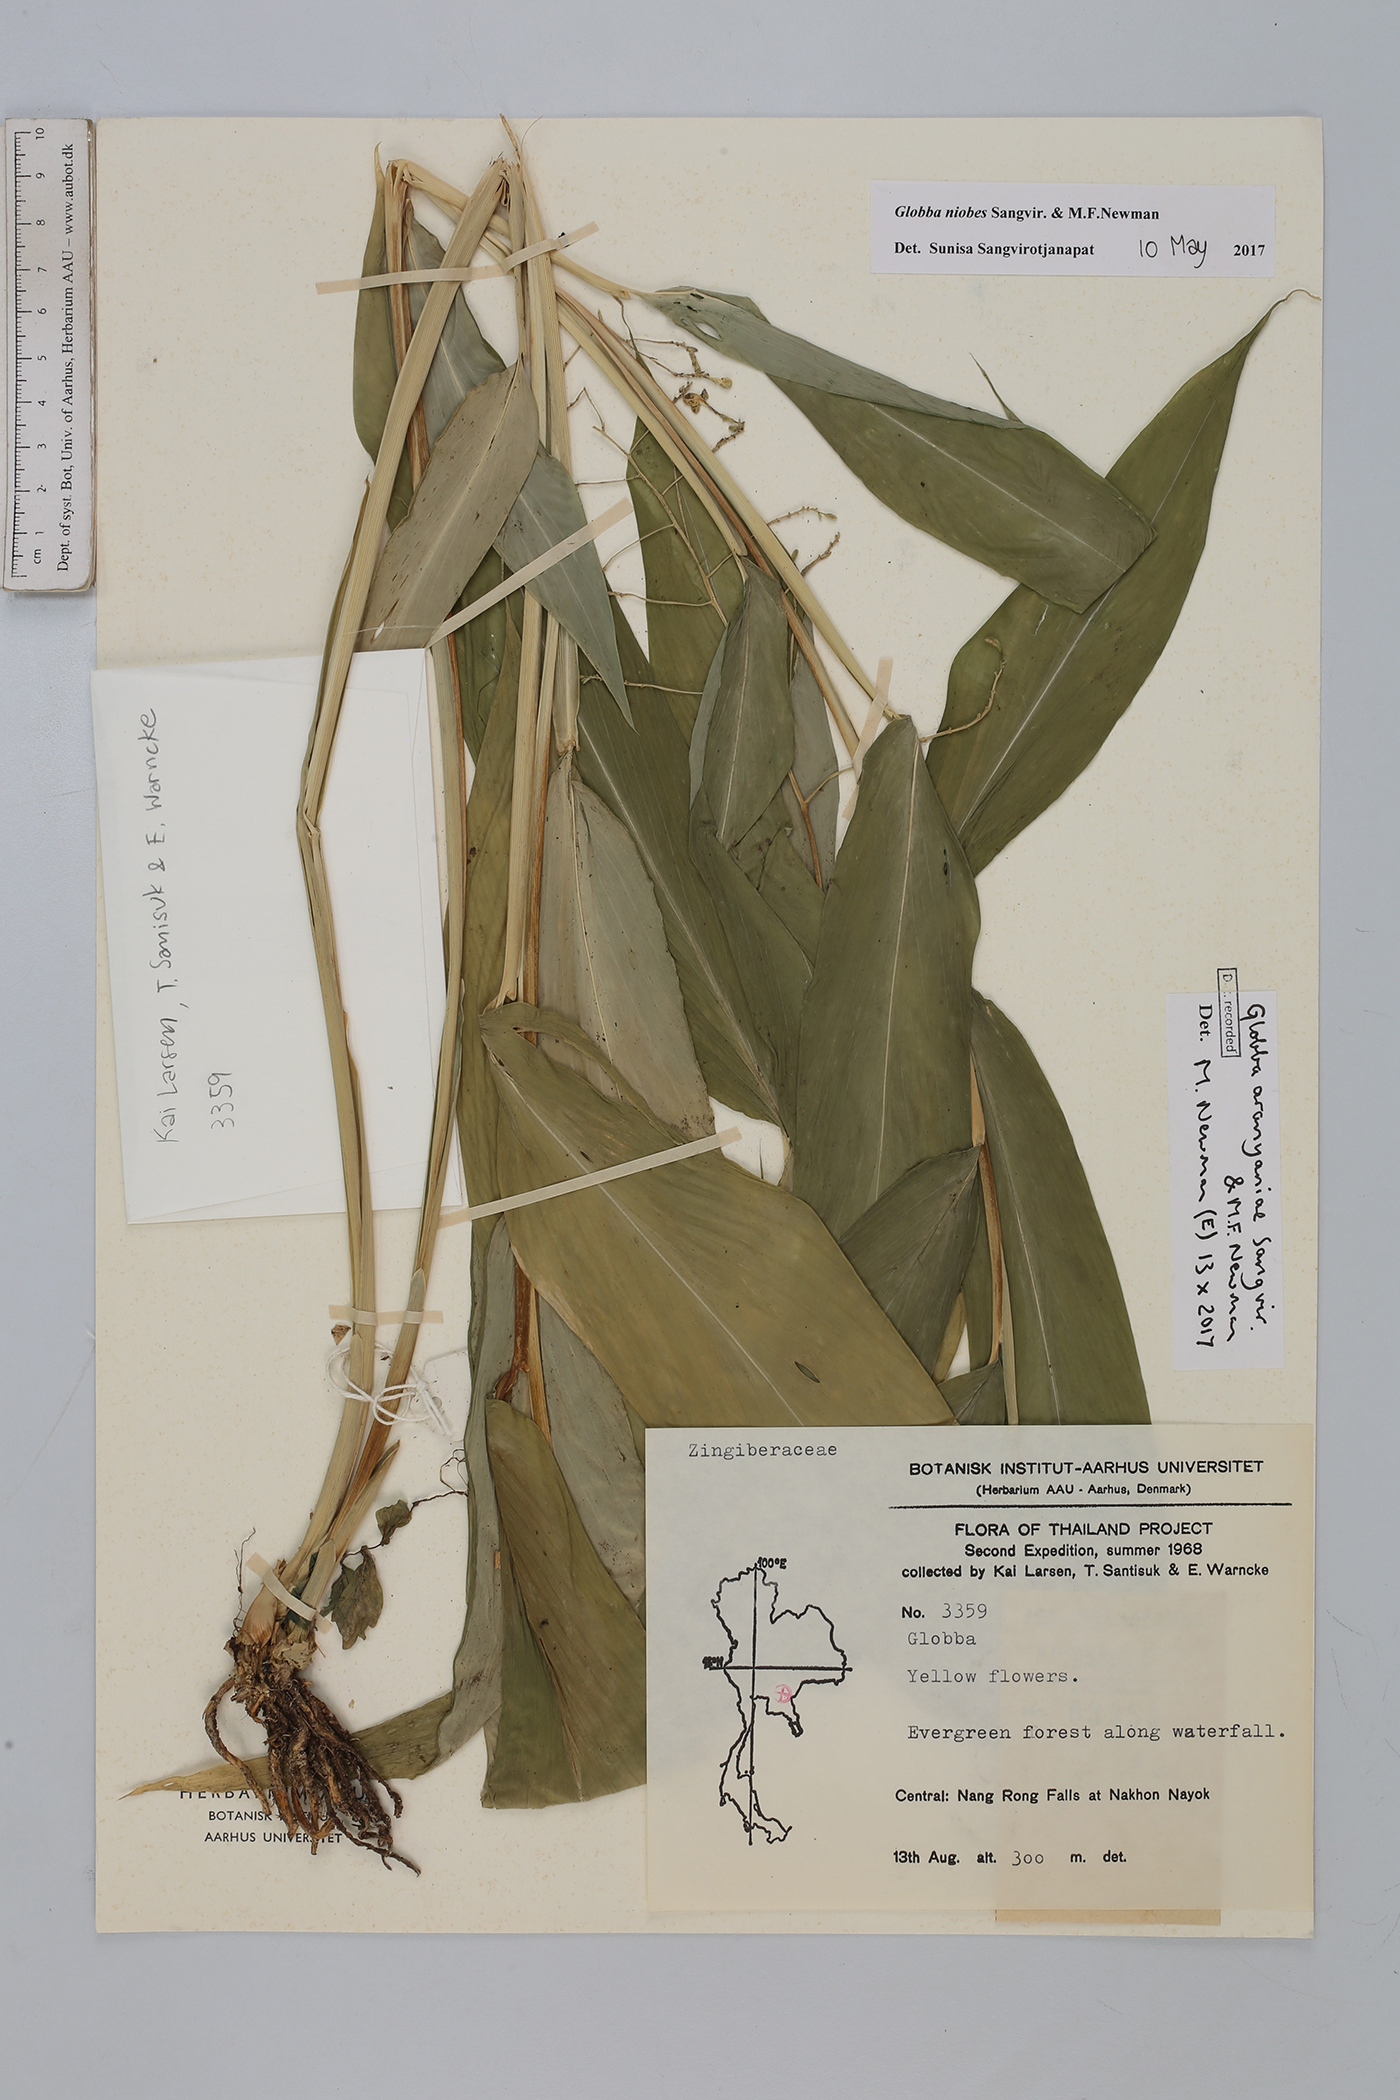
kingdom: Plantae
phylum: Tracheophyta
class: Liliopsida
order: Zingiberales
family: Zingiberaceae
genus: Globba
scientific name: Globba aranyaniae
